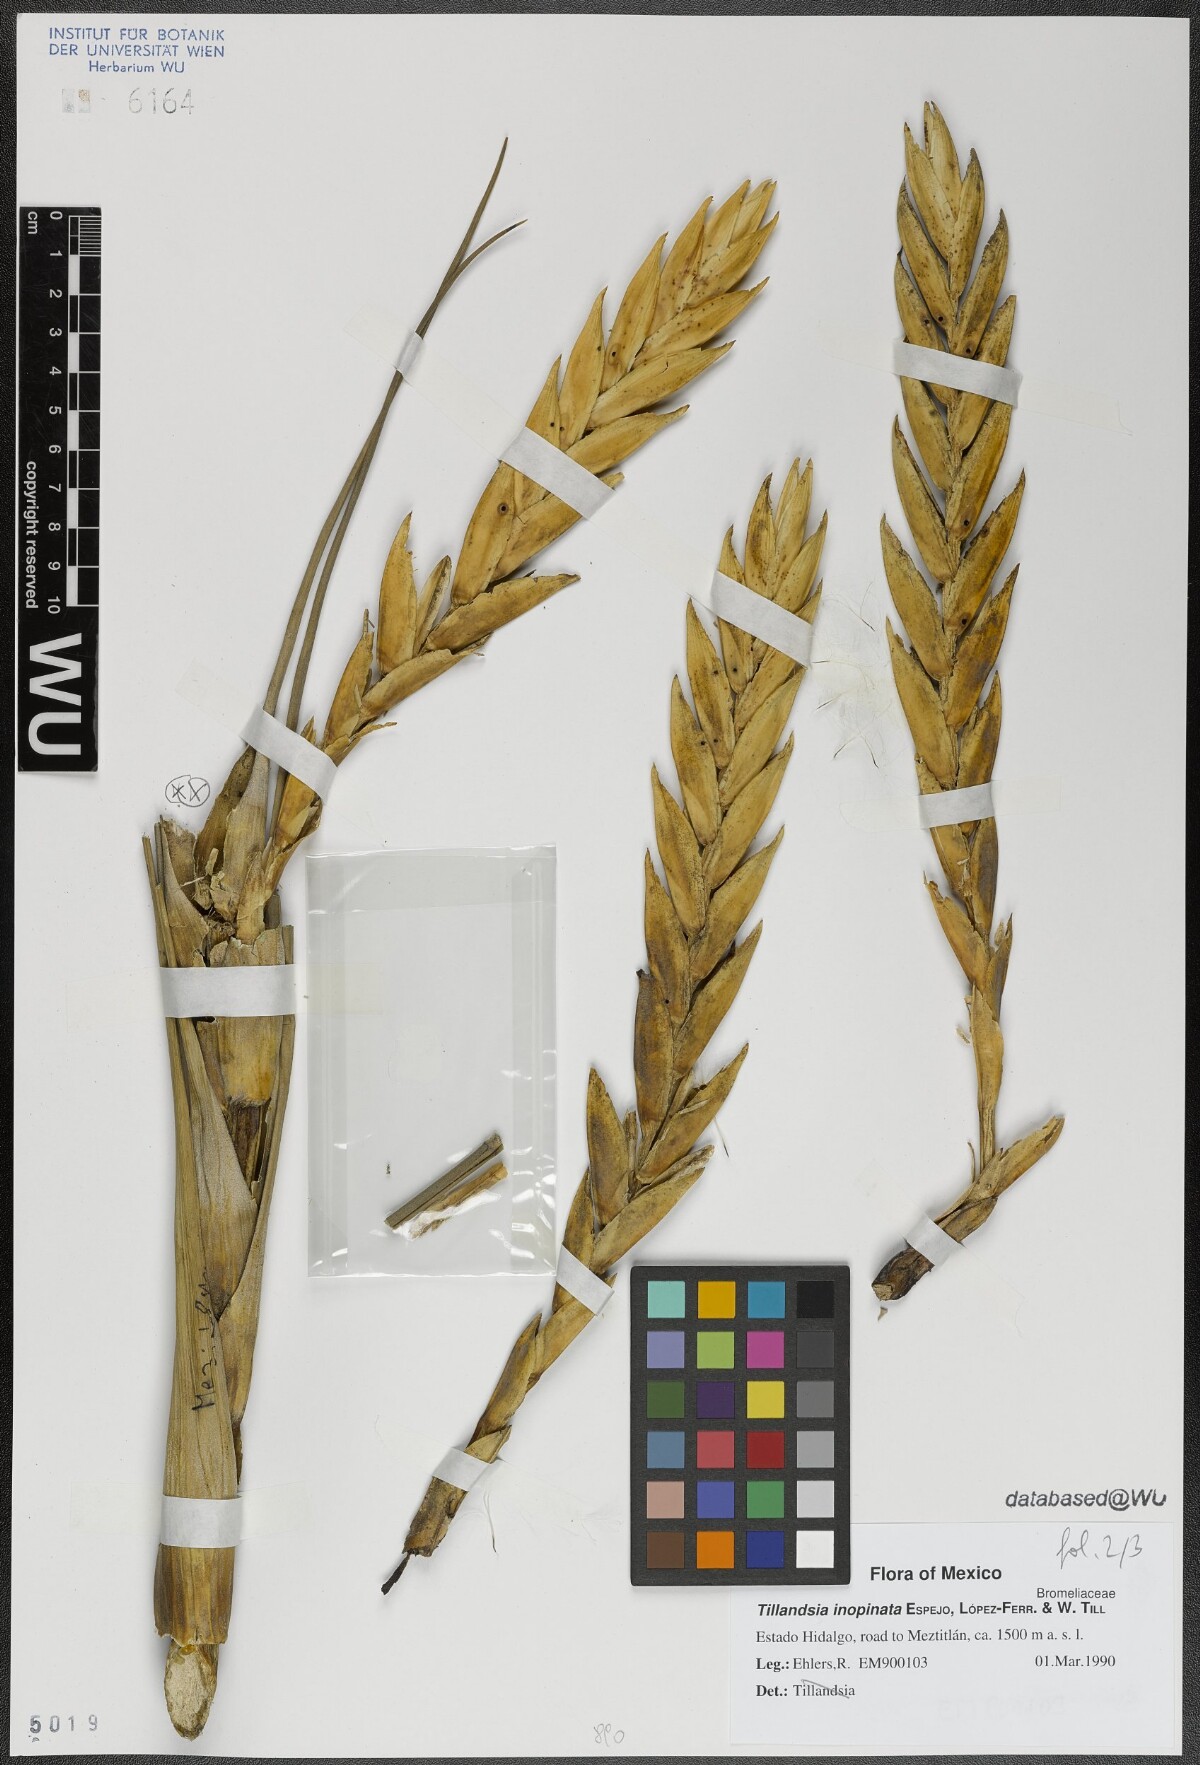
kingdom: Plantae
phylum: Tracheophyta
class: Liliopsida
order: Poales
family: Bromeliaceae
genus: Tillandsia
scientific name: Tillandsia inopinata
